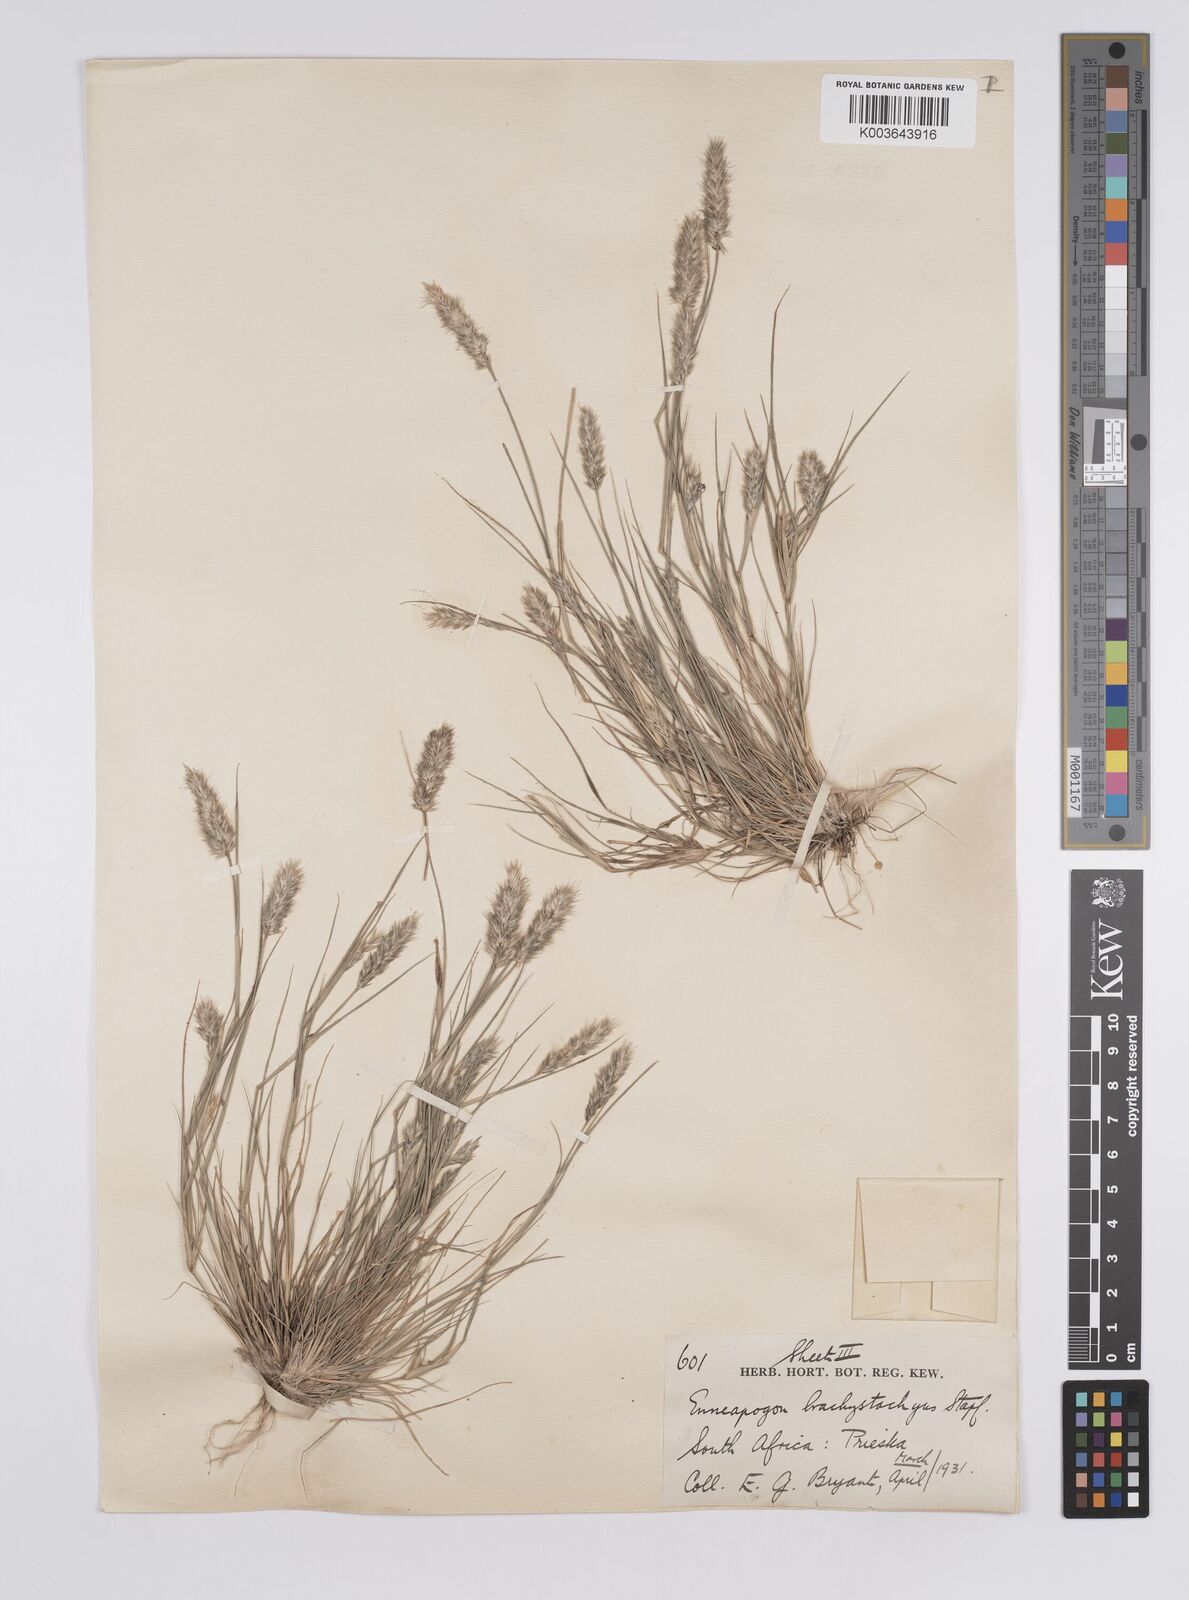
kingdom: Plantae
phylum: Tracheophyta
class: Liliopsida
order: Poales
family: Poaceae
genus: Enneapogon
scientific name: Enneapogon desvauxii
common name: Feather pappus grass
